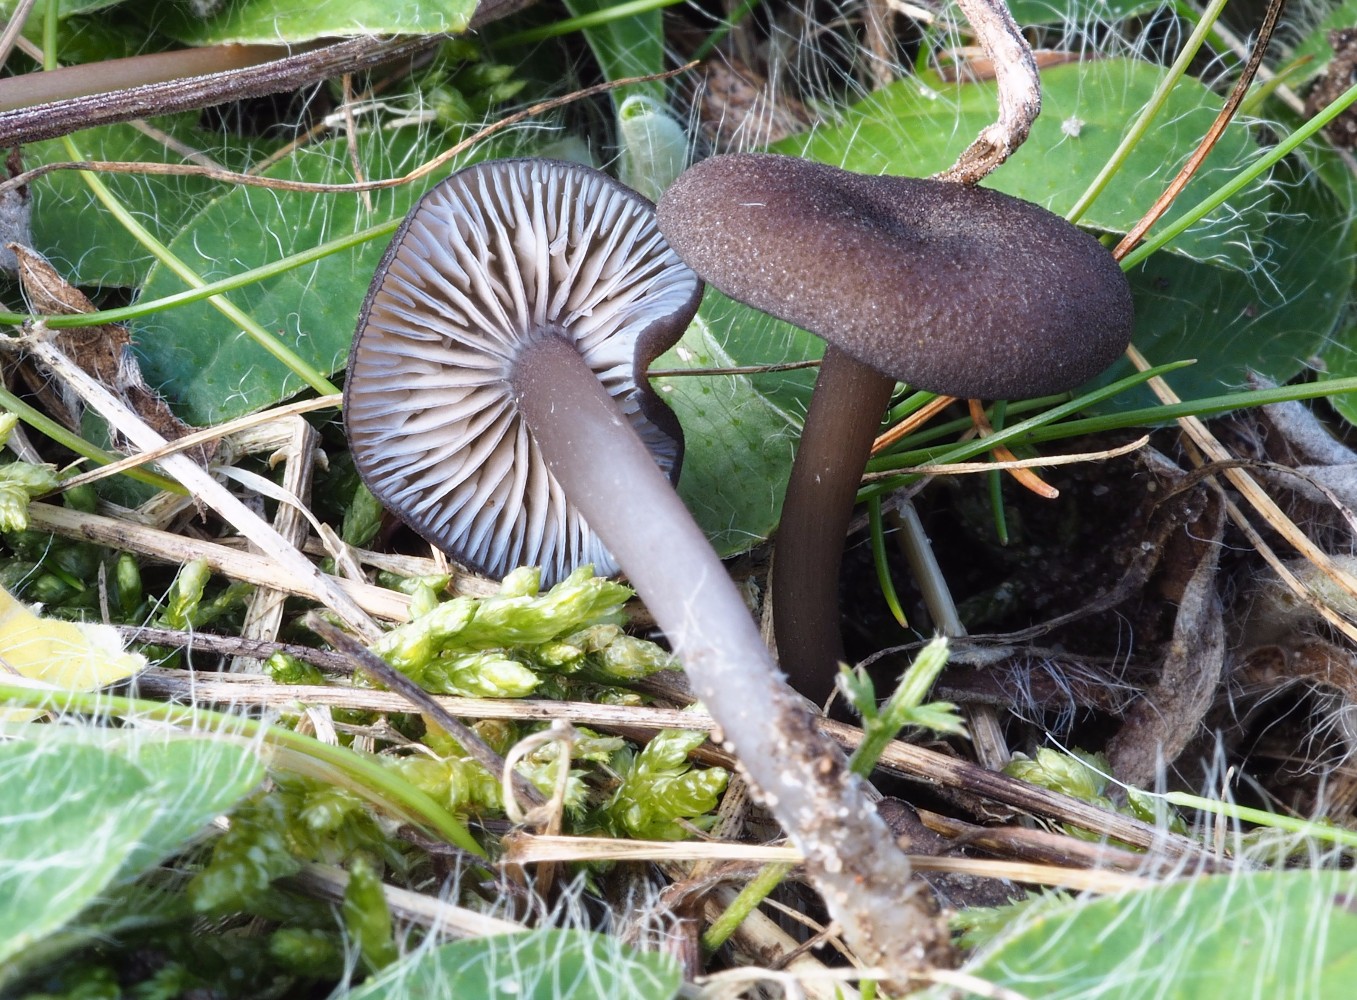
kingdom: Fungi
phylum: Basidiomycota
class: Agaricomycetes
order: Agaricales
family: Entolomataceae
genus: Entoloma
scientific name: Entoloma caesiocinctum
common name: Blue-girdled pinkgill
